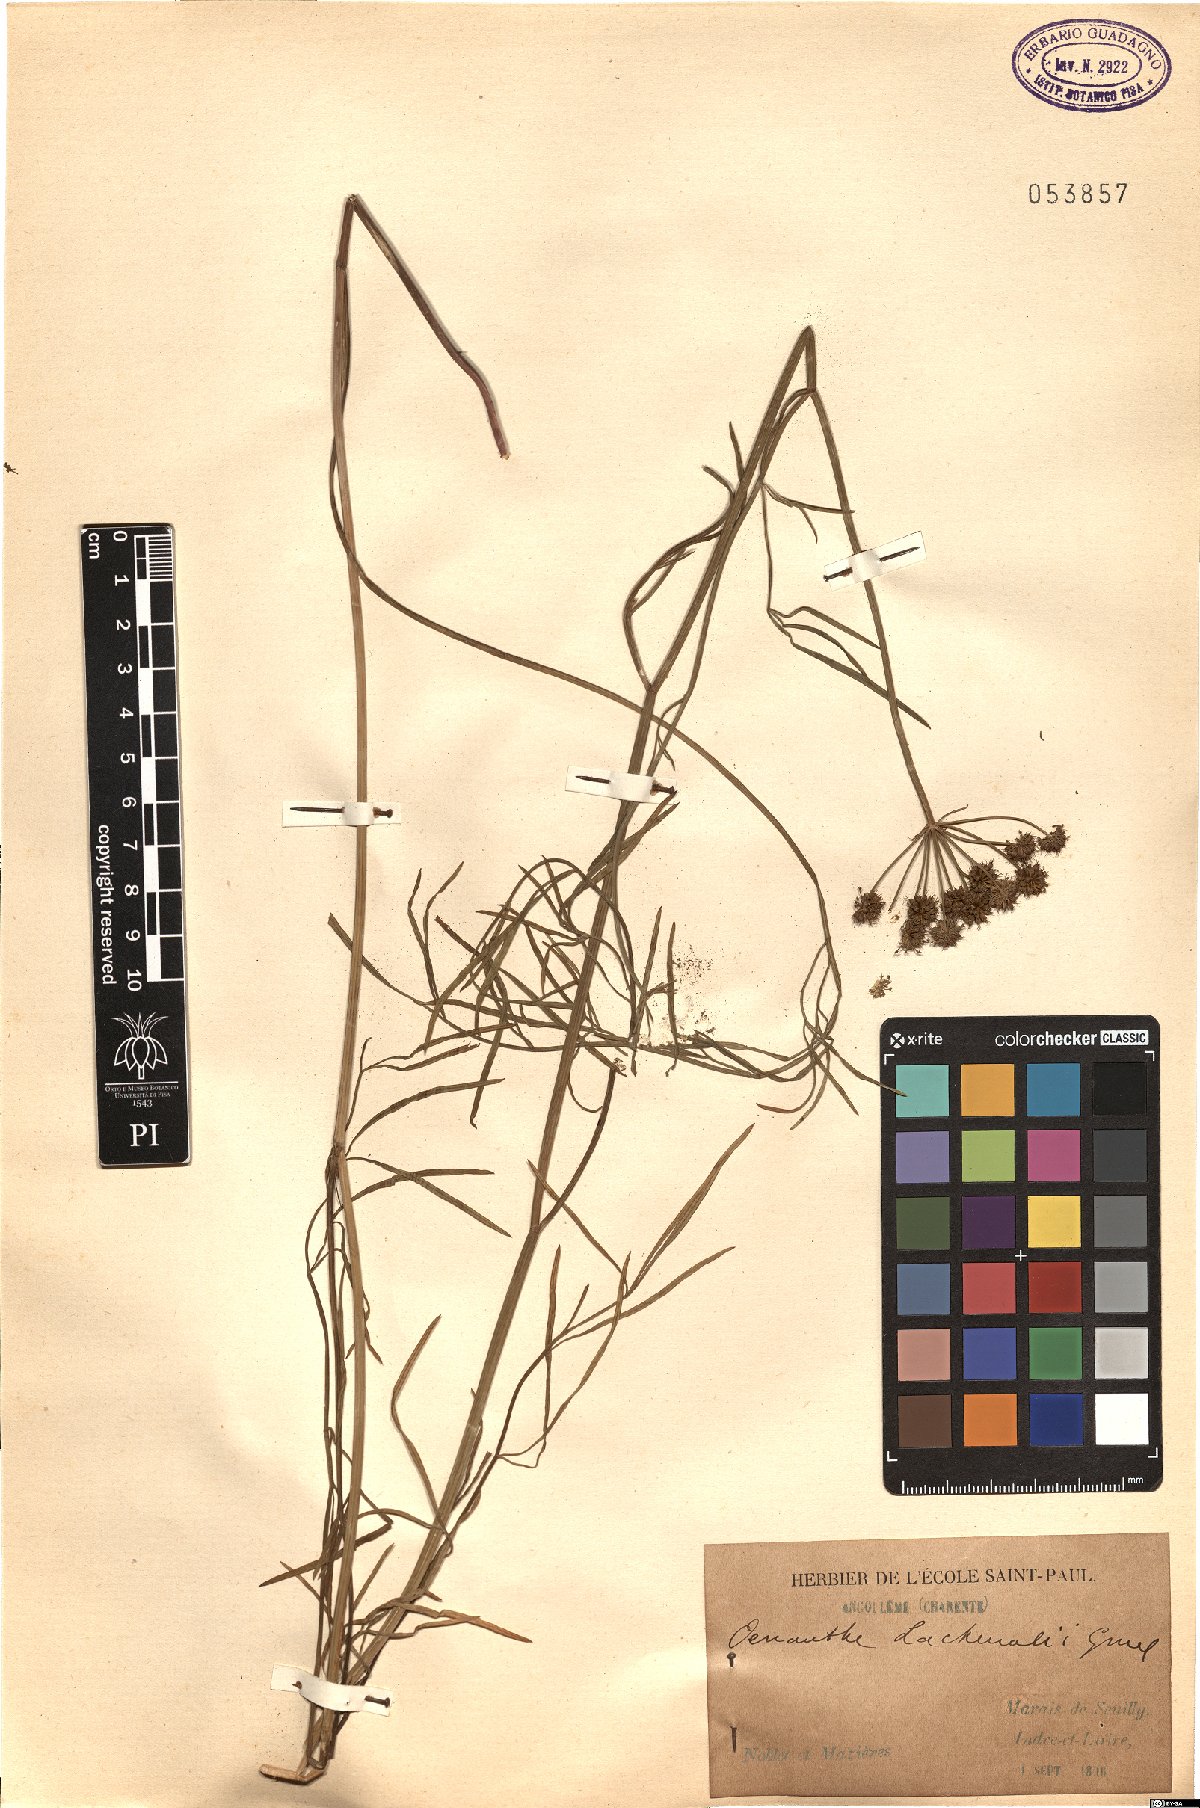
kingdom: Plantae
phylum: Tracheophyta
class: Magnoliopsida
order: Apiales
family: Apiaceae
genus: Oenanthe
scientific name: Oenanthe lachenalii
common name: Parsley water-dropwort
